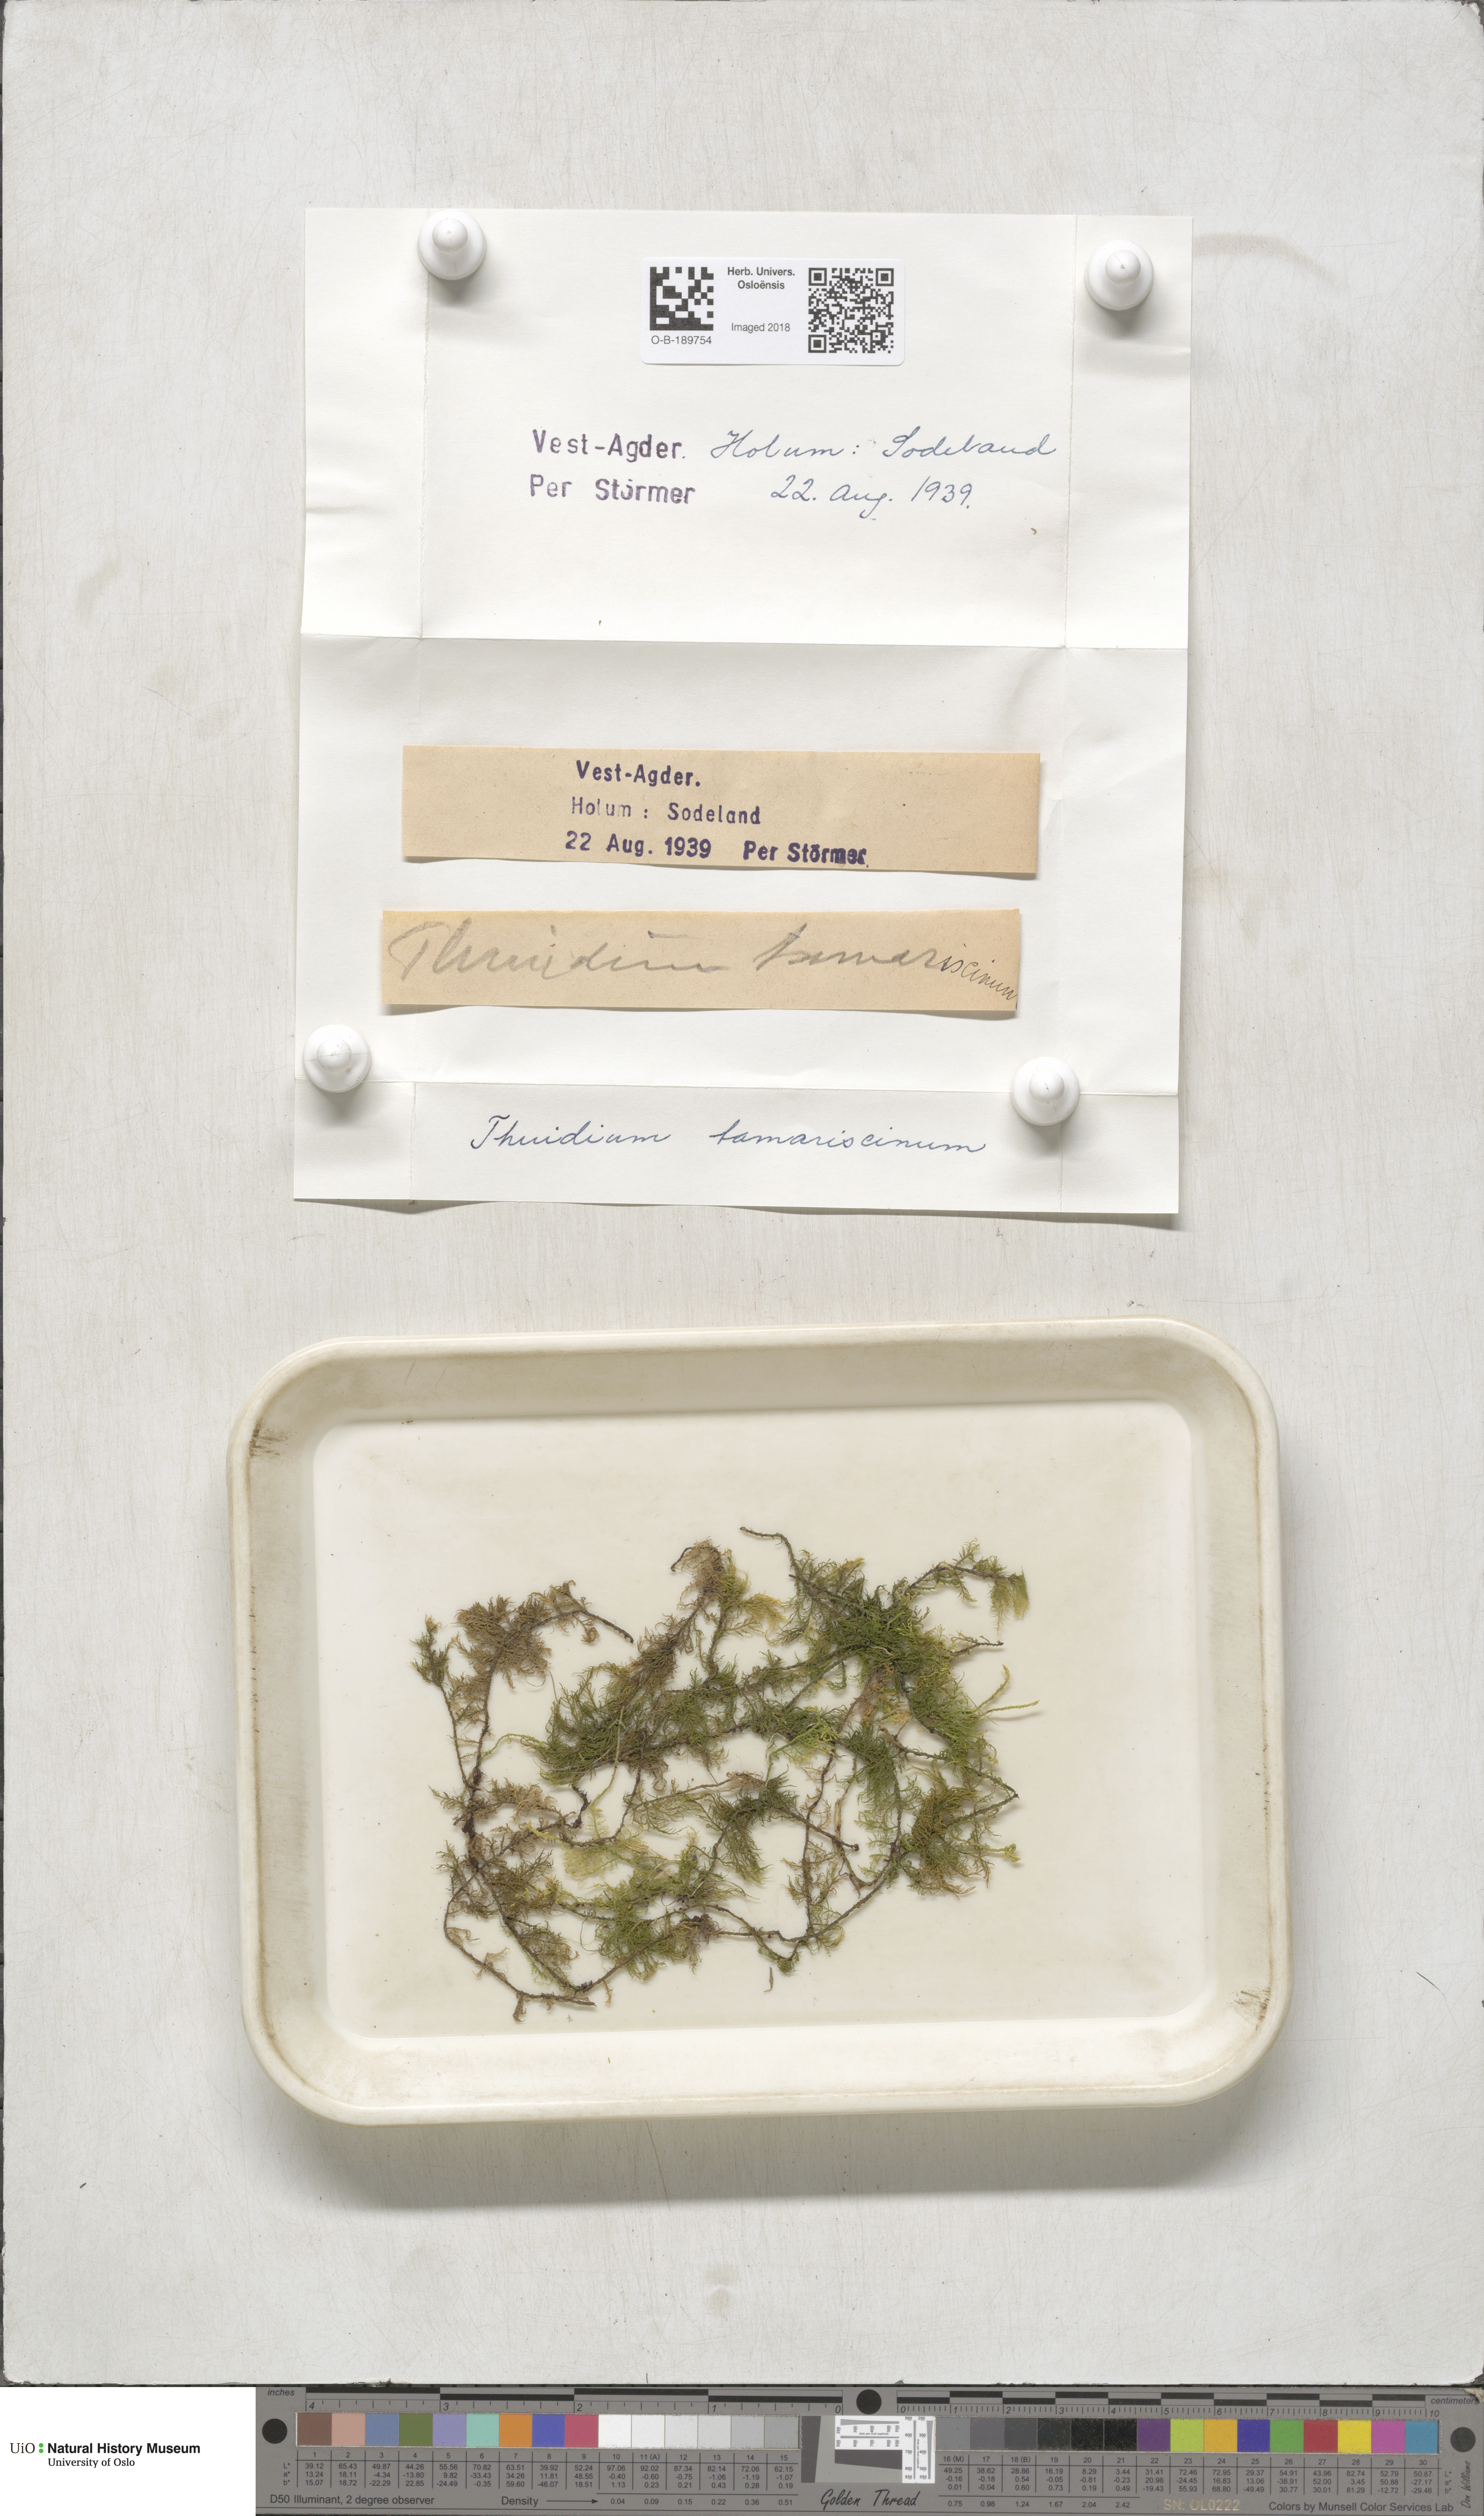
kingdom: Plantae
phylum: Bryophyta
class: Bryopsida
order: Hypnales
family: Thuidiaceae
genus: Thuidium
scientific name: Thuidium tamariscinum
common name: Common tamarisk-moss
